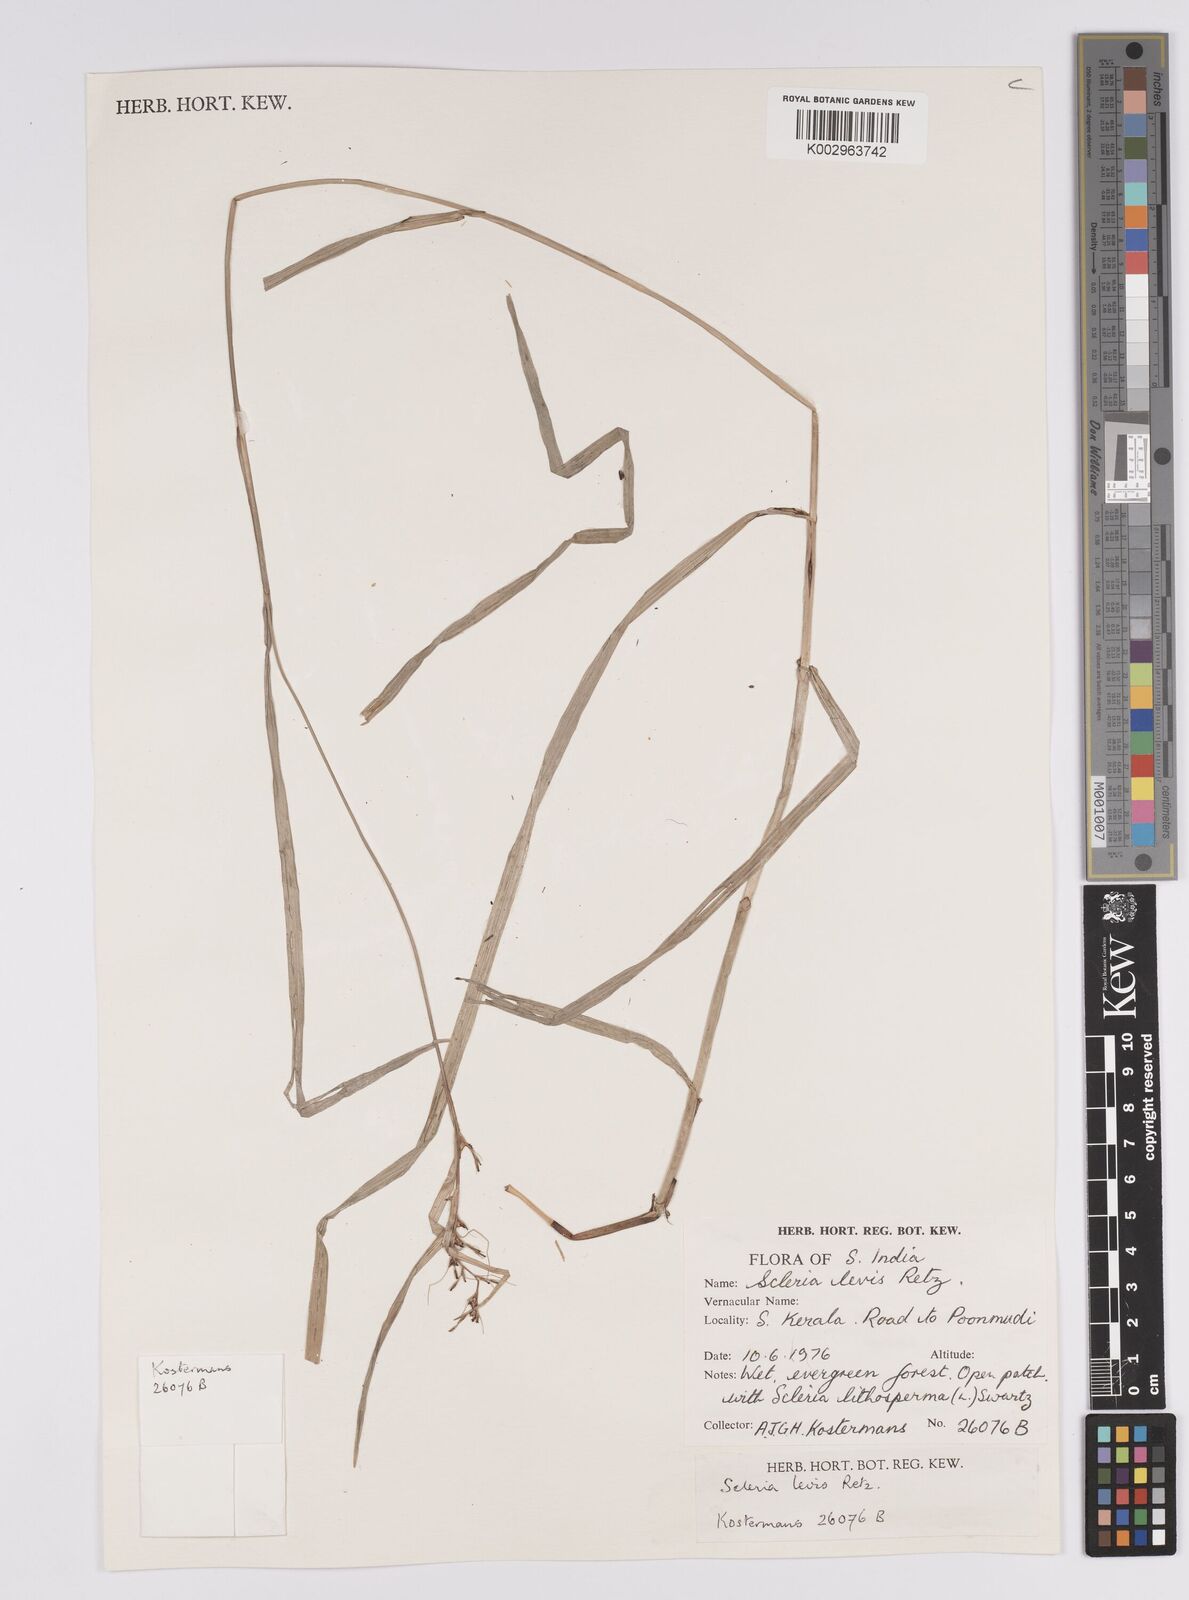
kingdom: Plantae
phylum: Tracheophyta
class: Liliopsida
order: Poales
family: Cyperaceae
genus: Scleria
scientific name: Scleria levis
